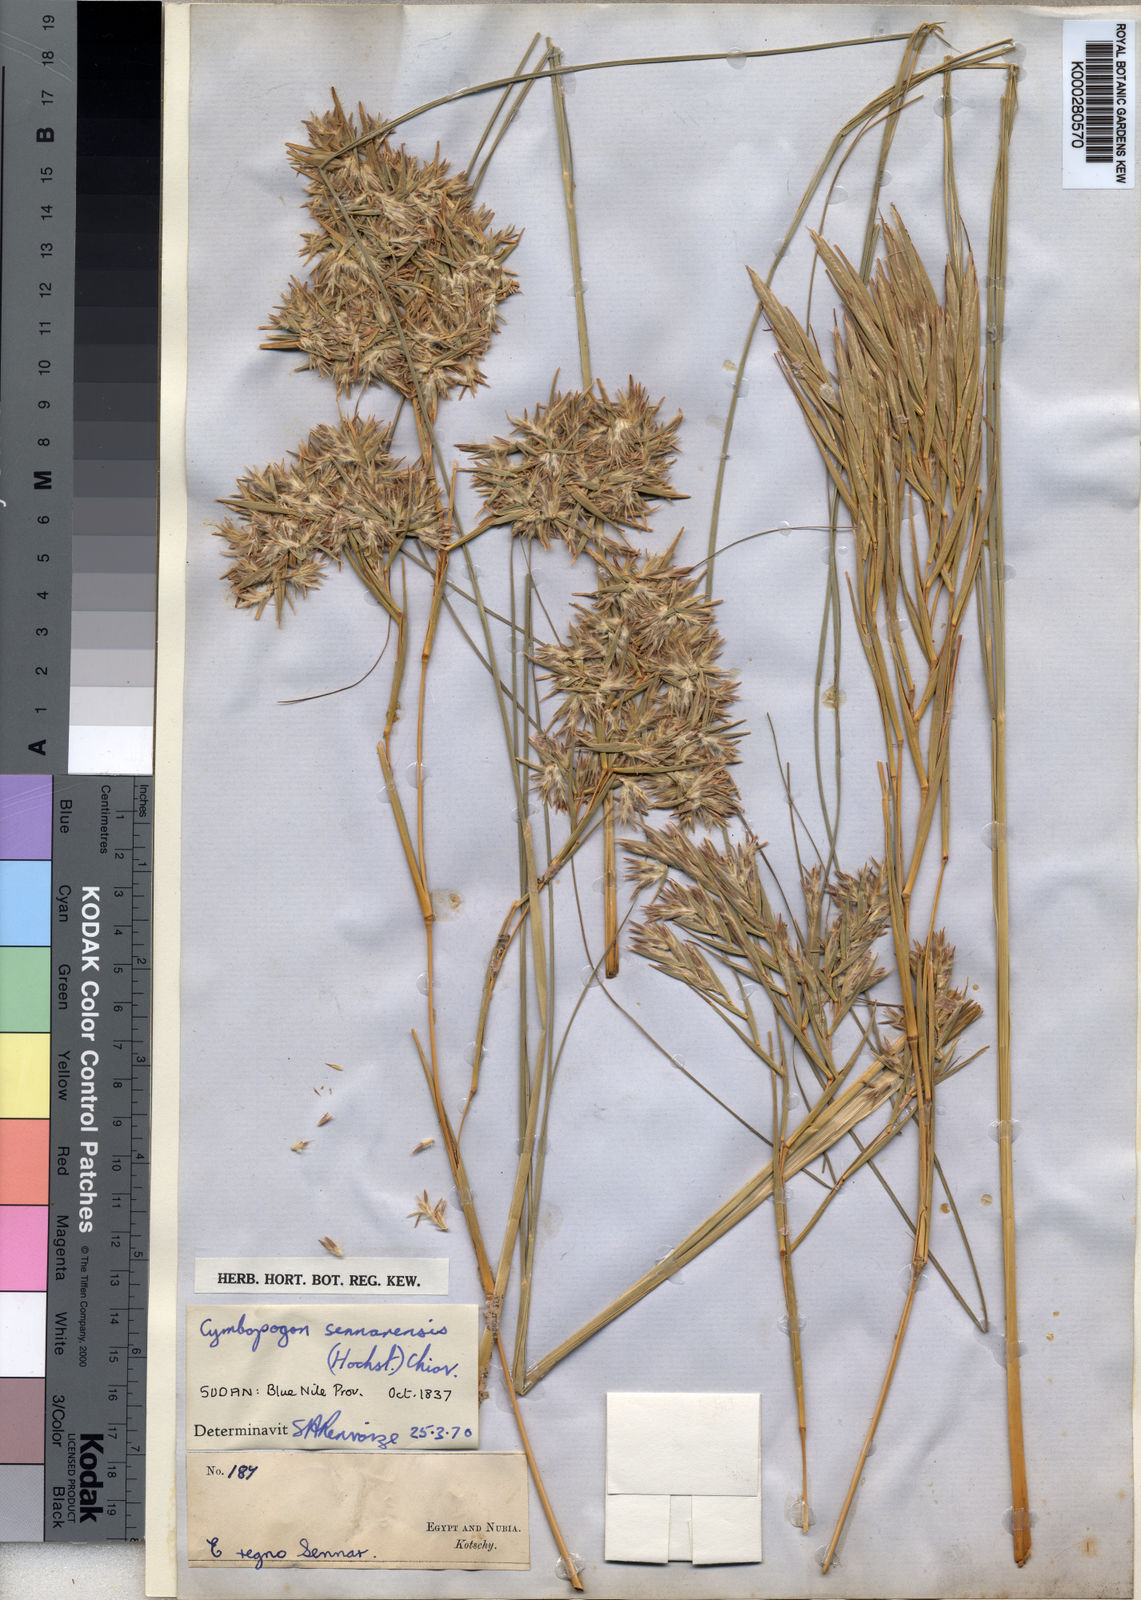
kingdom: Plantae
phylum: Tracheophyta
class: Liliopsida
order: Poales
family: Poaceae
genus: Cymbopogon
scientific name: Cymbopogon schoenanthus
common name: Geranium grass
